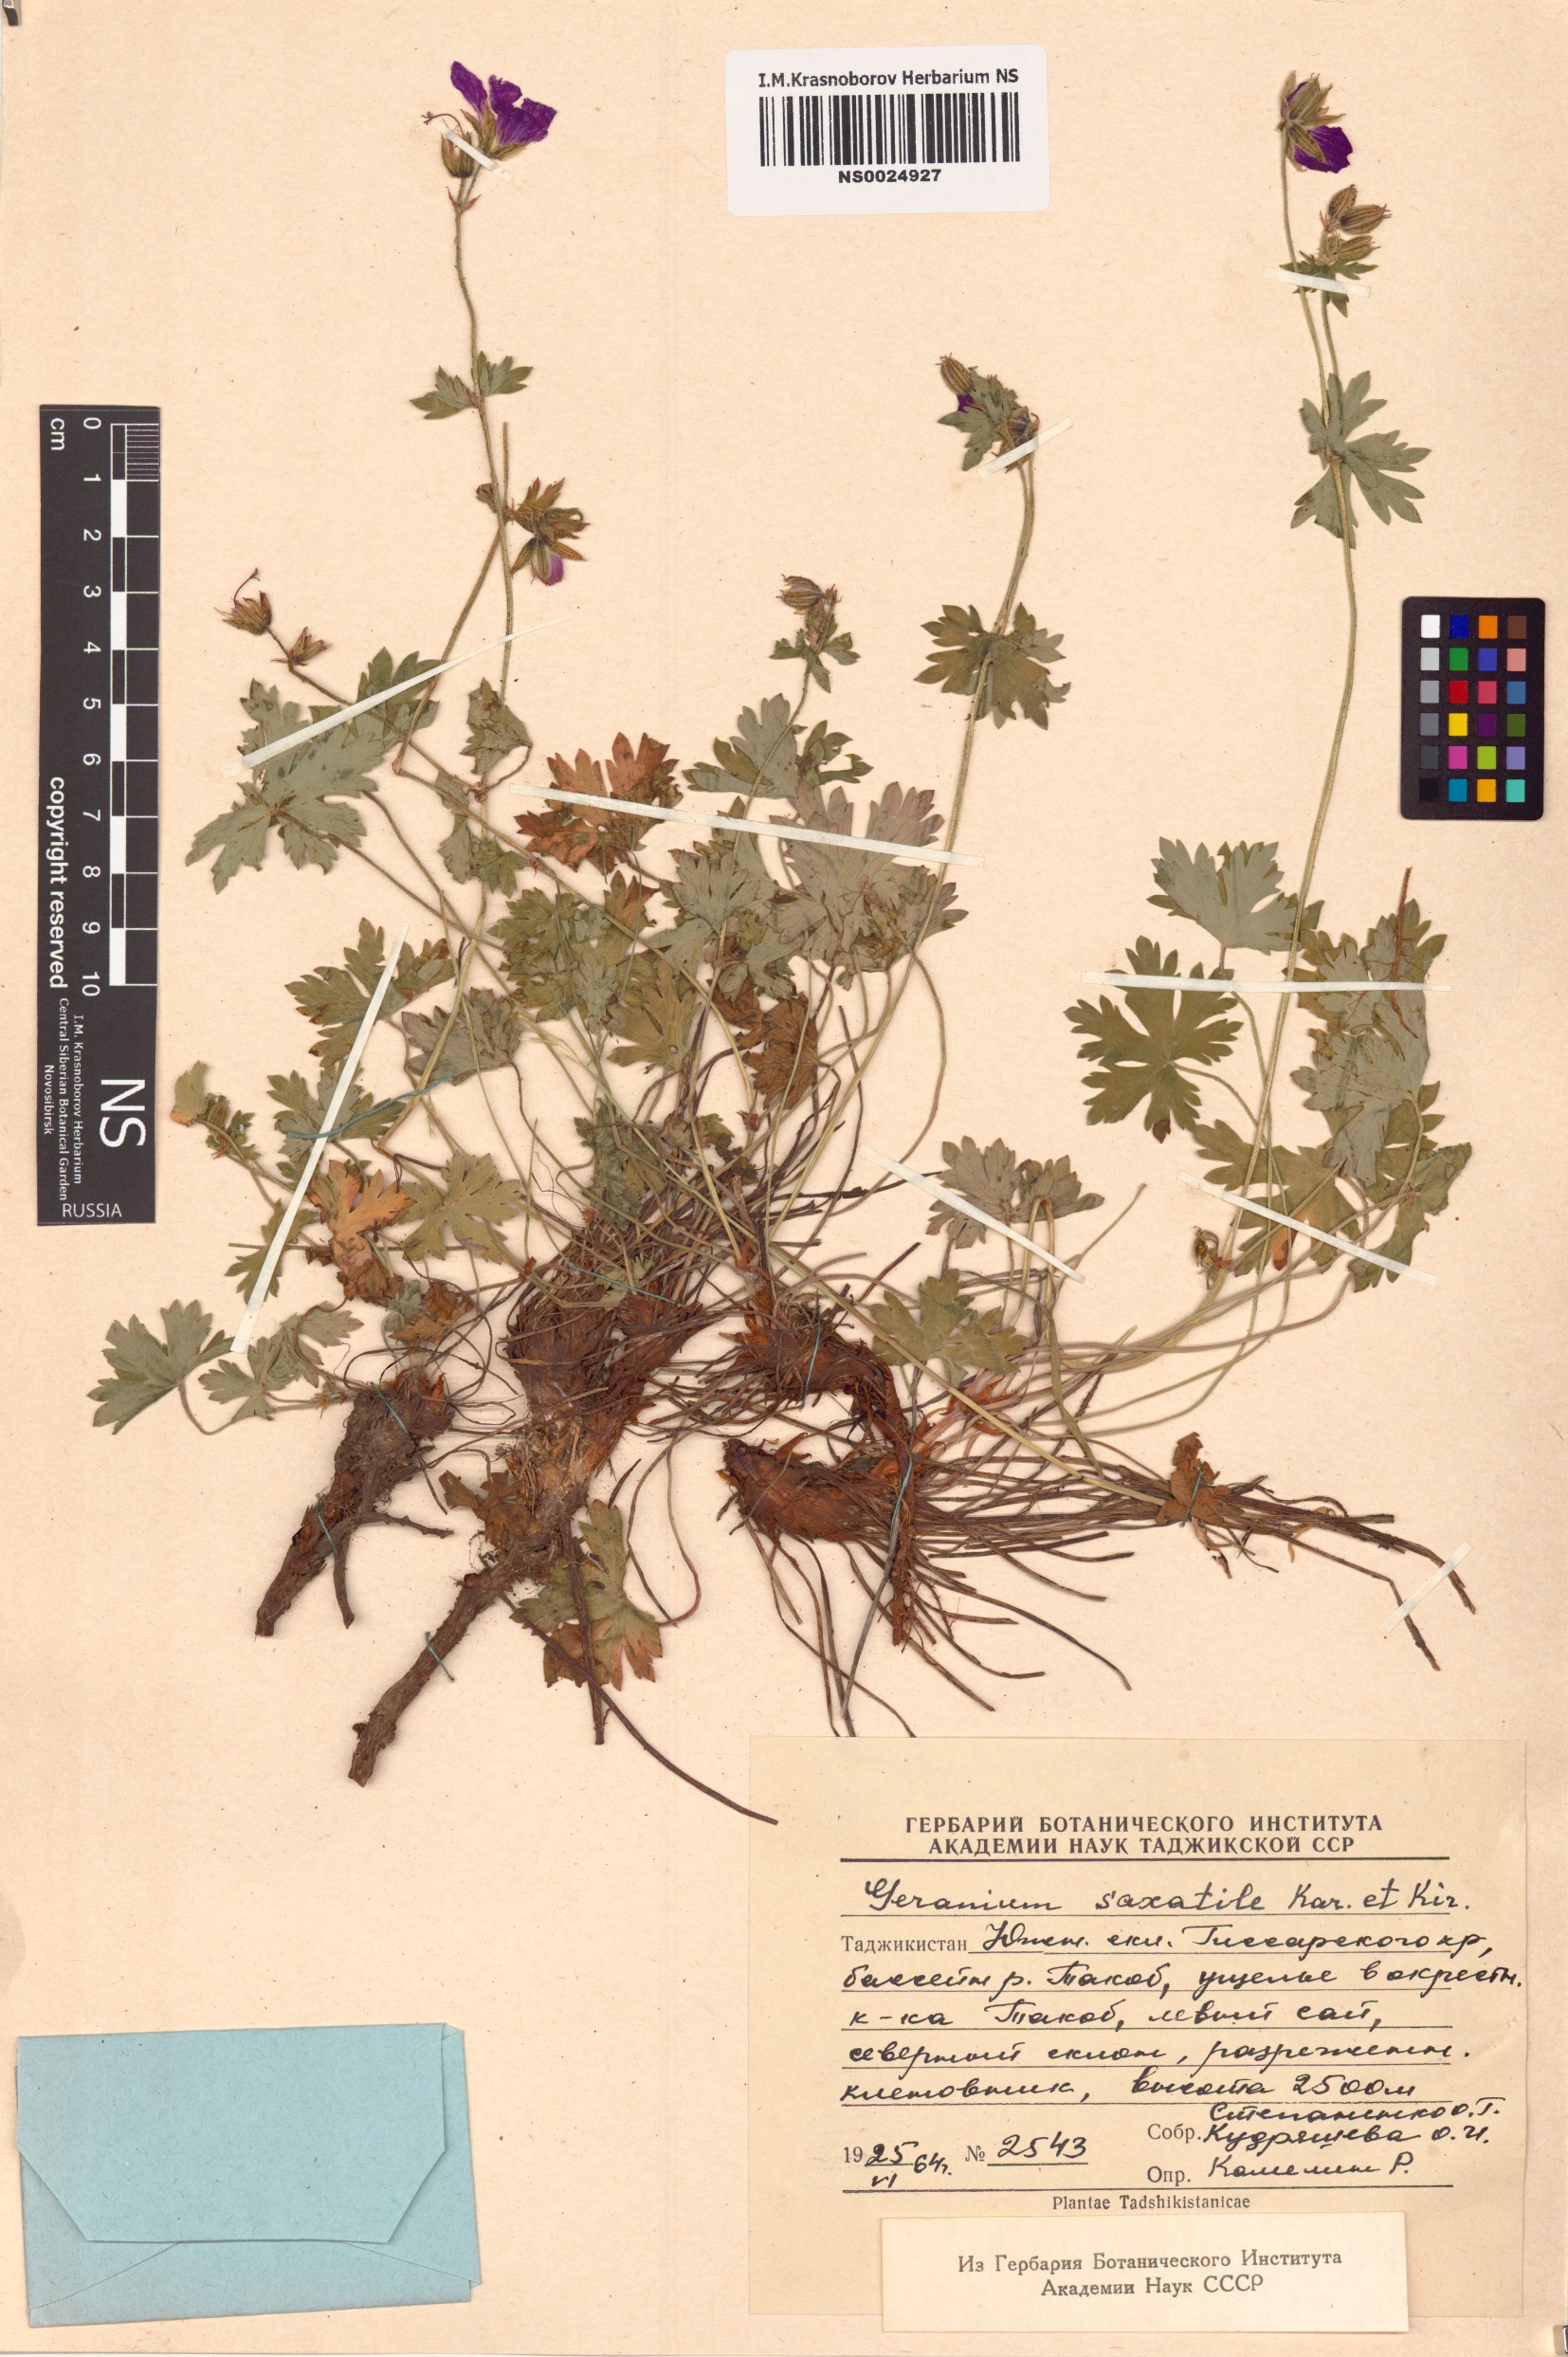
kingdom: Plantae
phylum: Tracheophyta
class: Magnoliopsida
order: Geraniales
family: Geraniaceae
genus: Geranium
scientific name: Geranium saxatile
